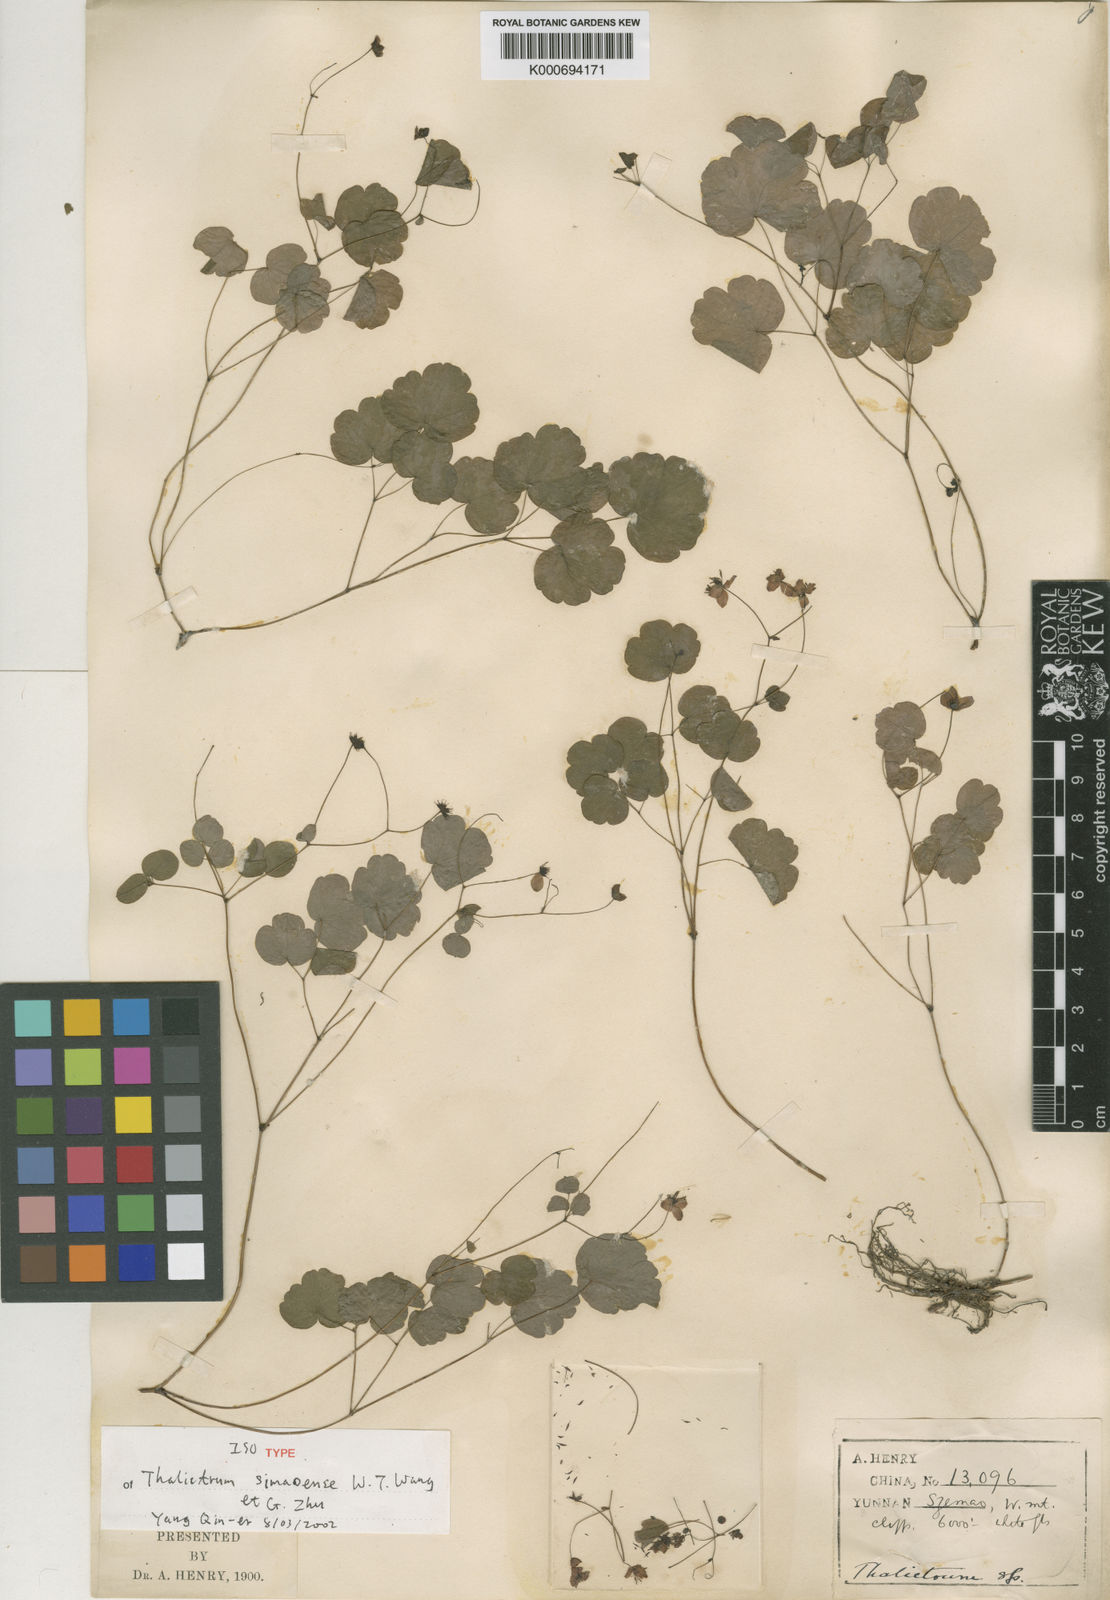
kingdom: Plantae
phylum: Tracheophyta
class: Magnoliopsida
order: Ranunculales
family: Ranunculaceae
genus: Thalictrum
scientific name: Thalictrum simaoense
